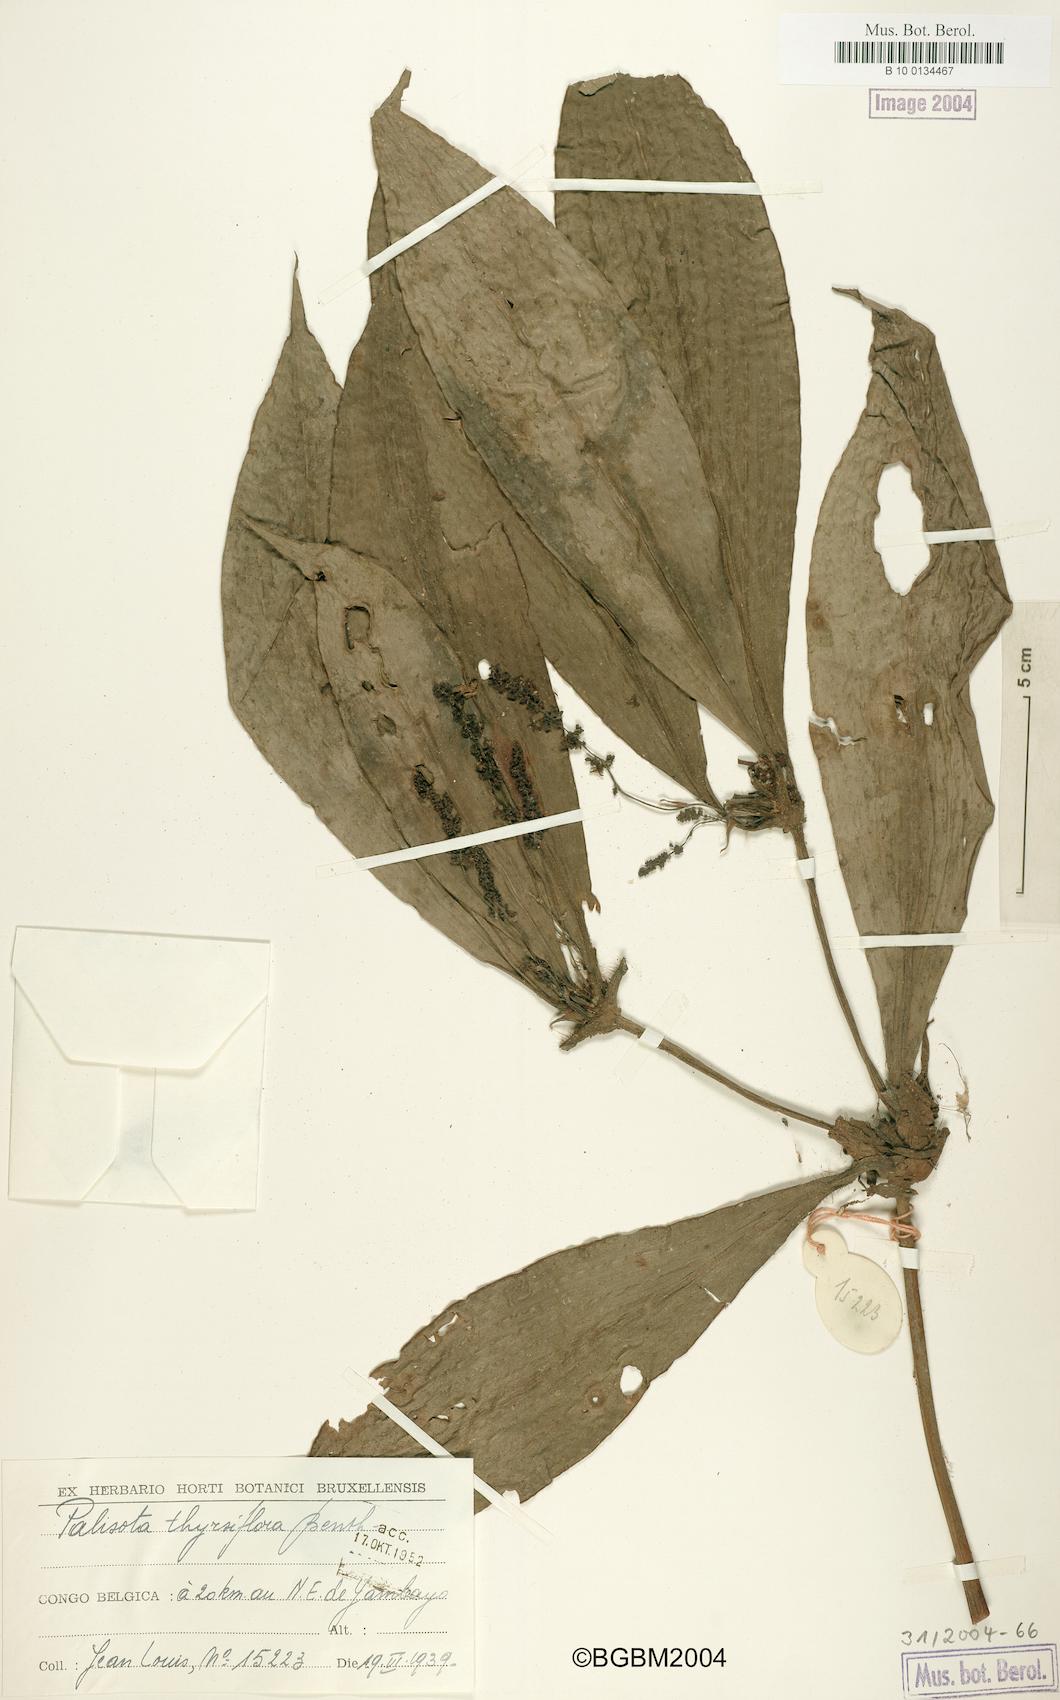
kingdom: Plantae
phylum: Tracheophyta
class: Liliopsida
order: Commelinales
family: Commelinaceae
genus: Palisota
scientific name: Palisota thollonii
